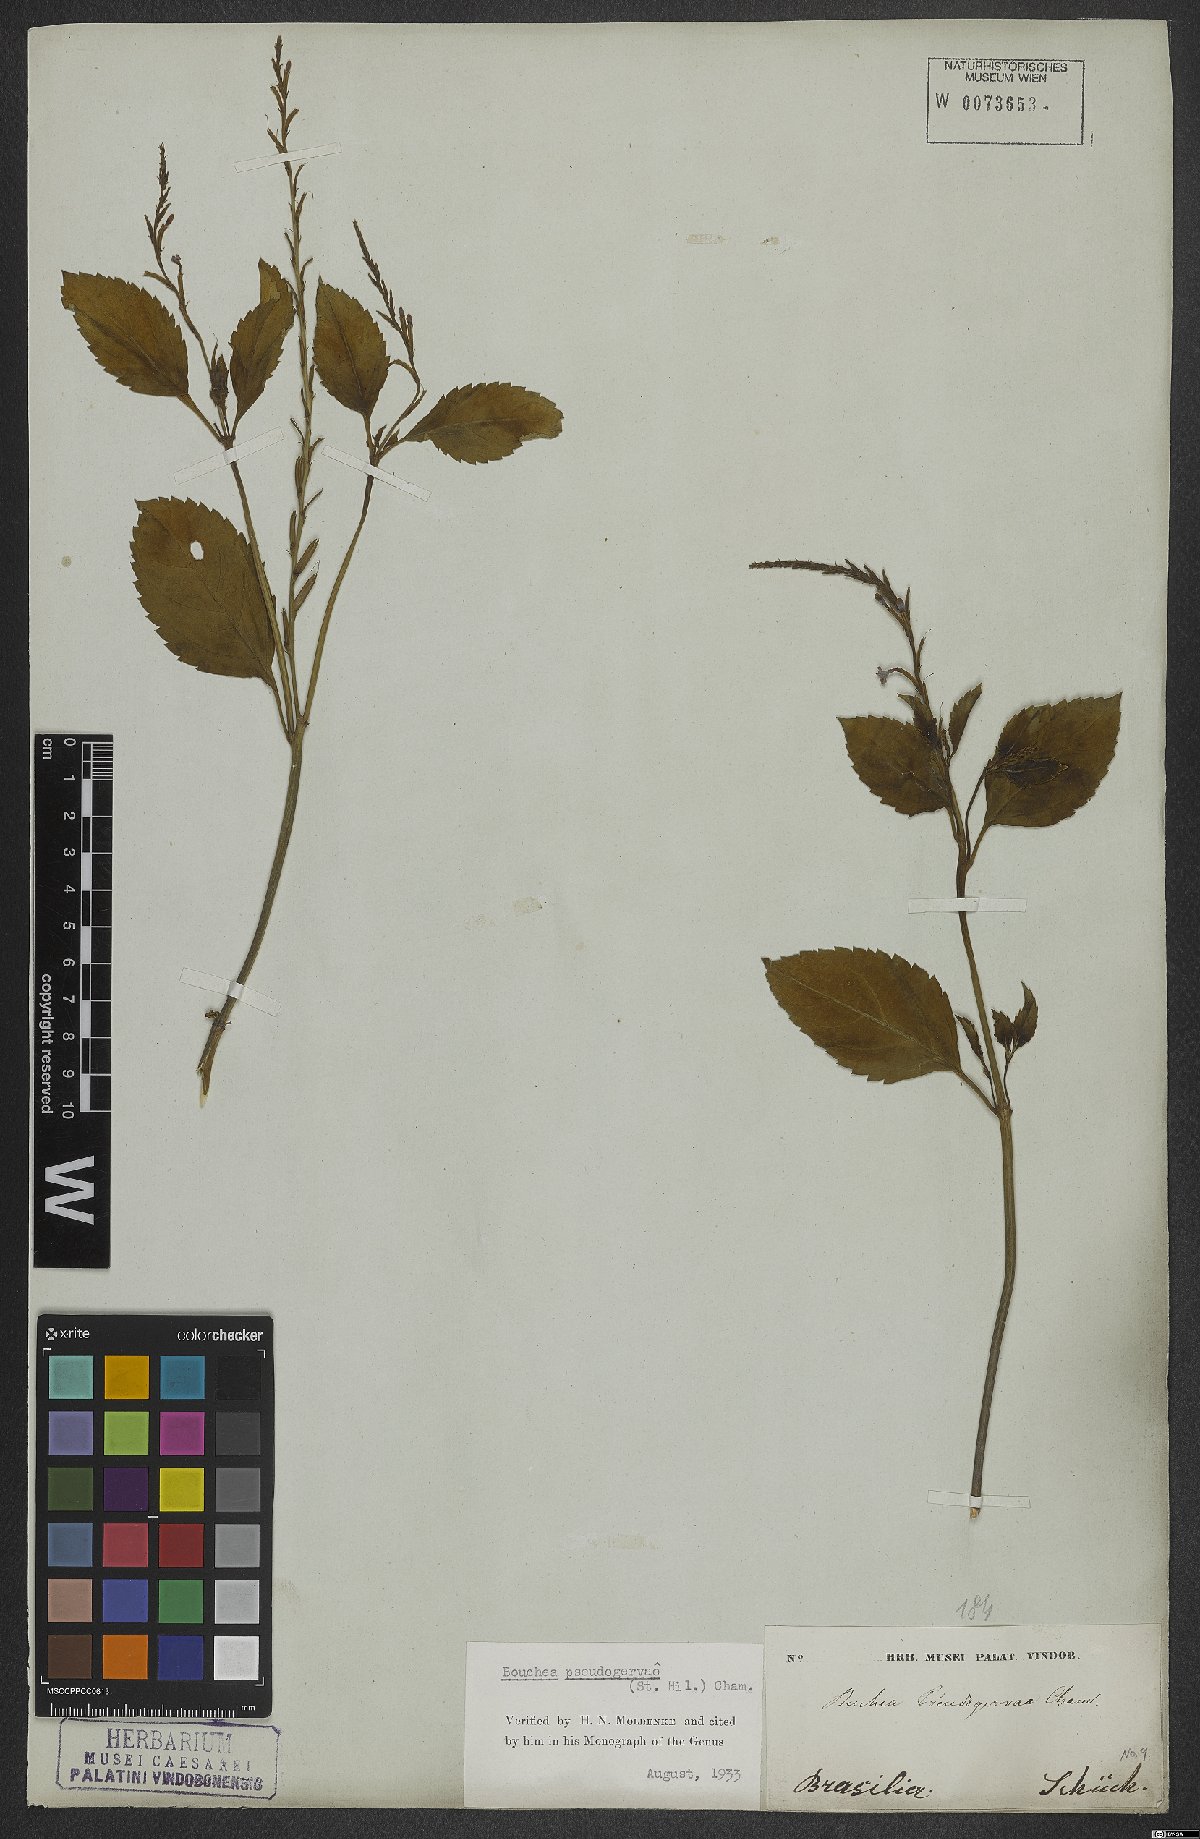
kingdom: Plantae
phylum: Tracheophyta
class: Magnoliopsida
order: Lamiales
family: Verbenaceae
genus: Bouchea
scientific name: Bouchea pseudogervao
